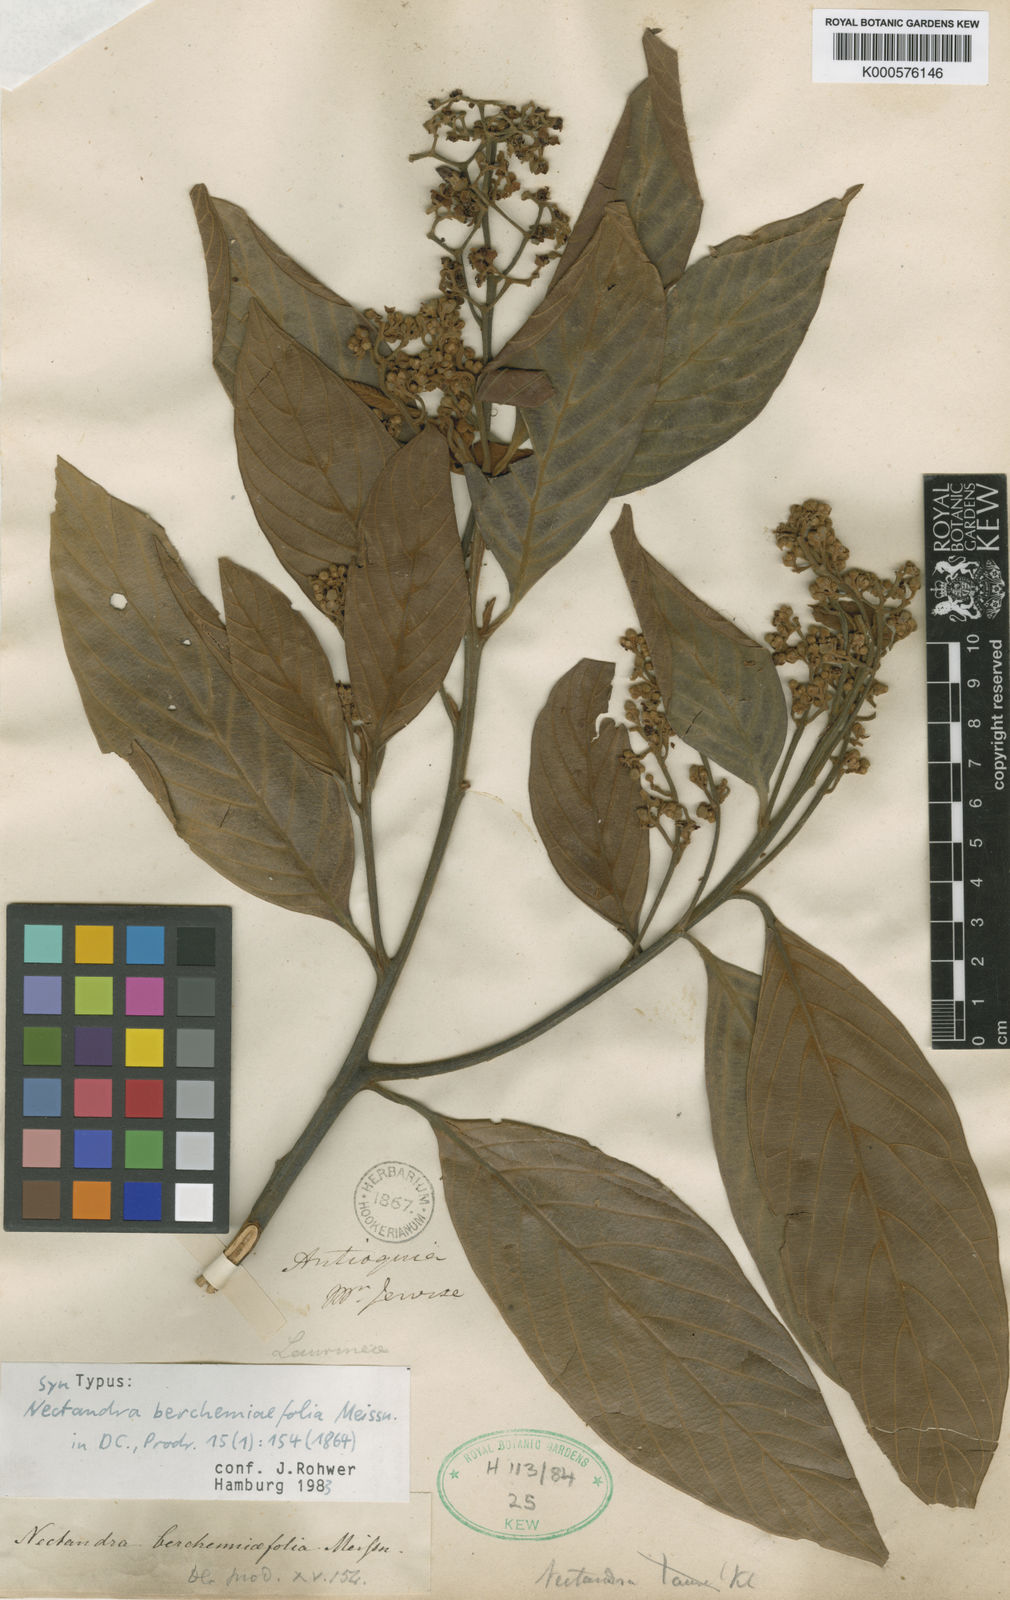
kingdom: Plantae
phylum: Tracheophyta
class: Magnoliopsida
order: Laurales
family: Lauraceae
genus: Nectandra
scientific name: Nectandra acutifolia
